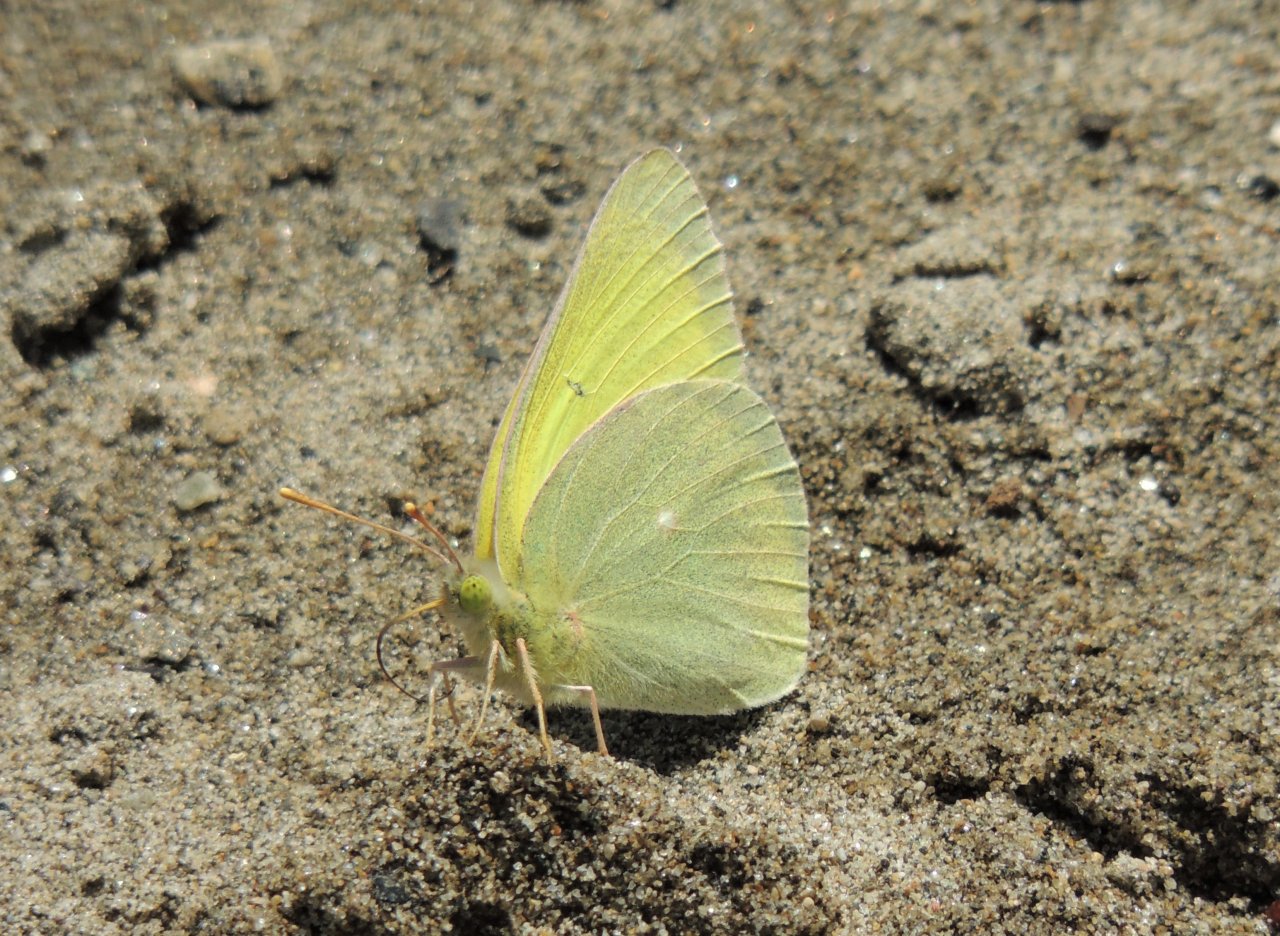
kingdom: Animalia
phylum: Arthropoda
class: Insecta
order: Lepidoptera
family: Pieridae
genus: Colias
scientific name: Colias alexandra
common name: Queen Alexandra's Sulphur
